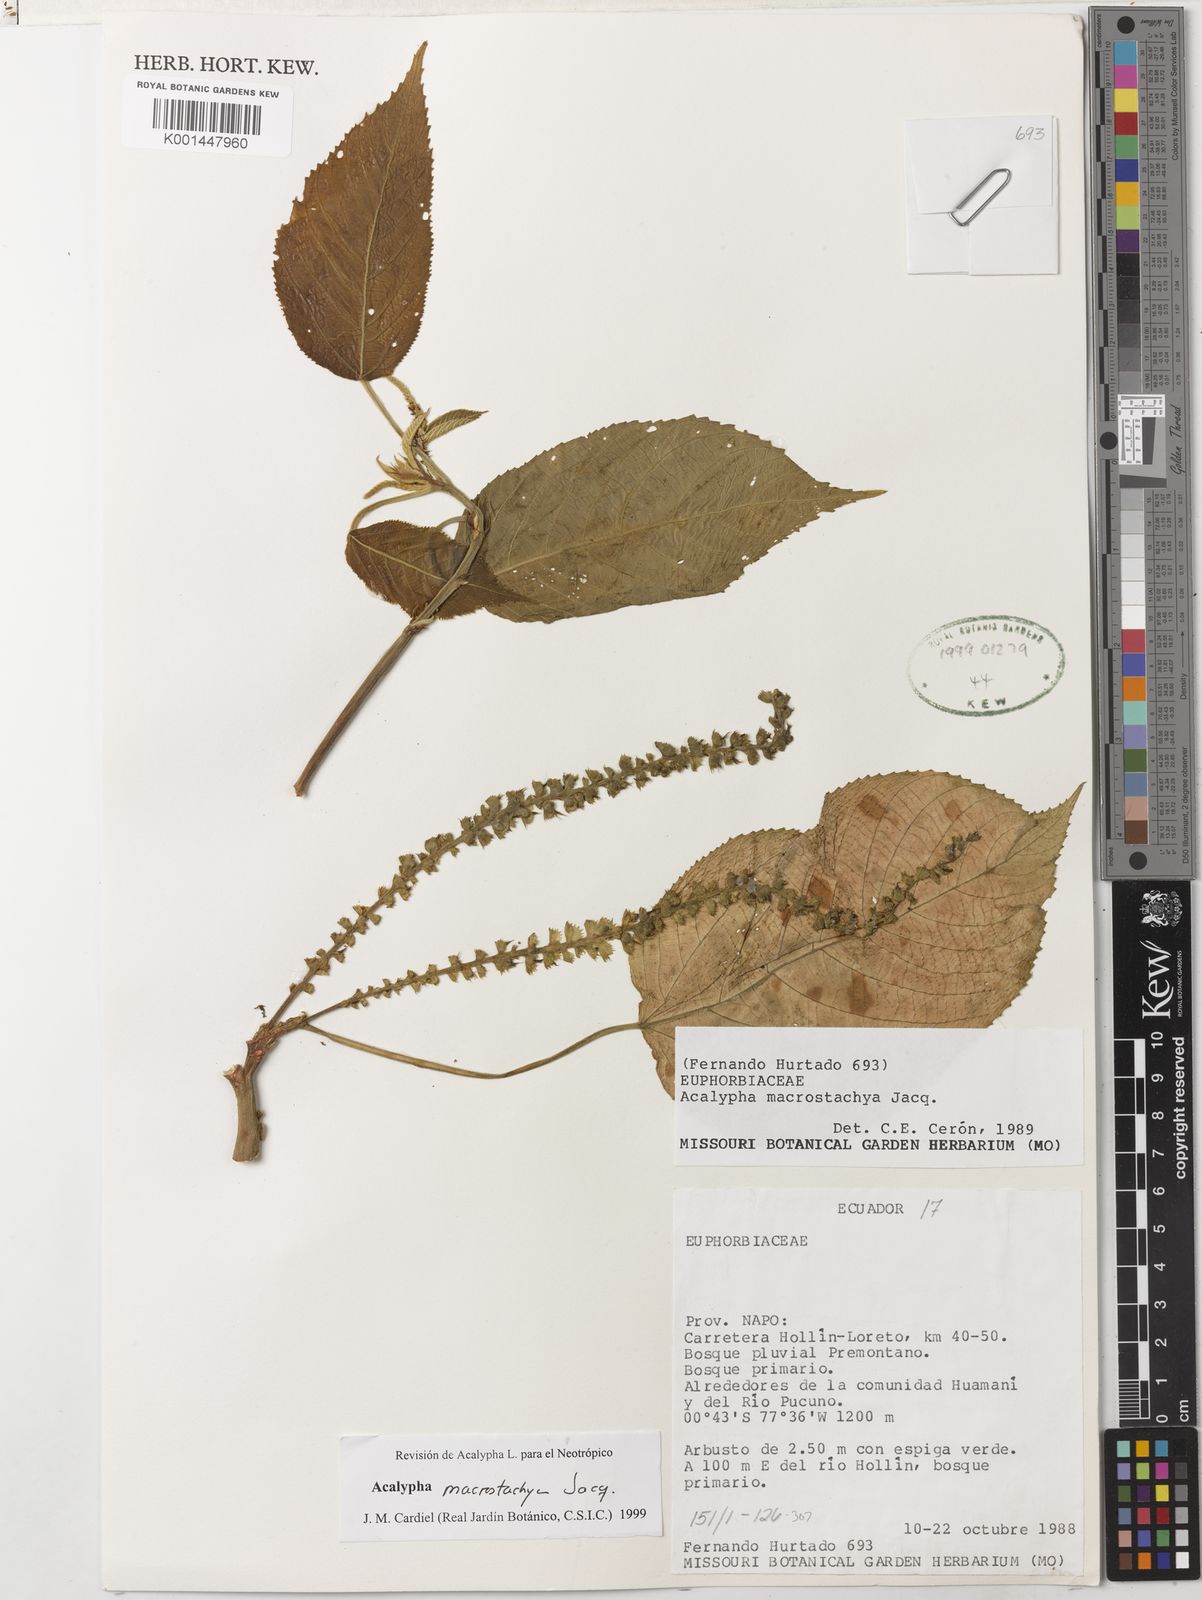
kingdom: Plantae
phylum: Tracheophyta
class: Magnoliopsida
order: Malpighiales
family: Euphorbiaceae
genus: Acalypha
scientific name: Acalypha macrostachya
